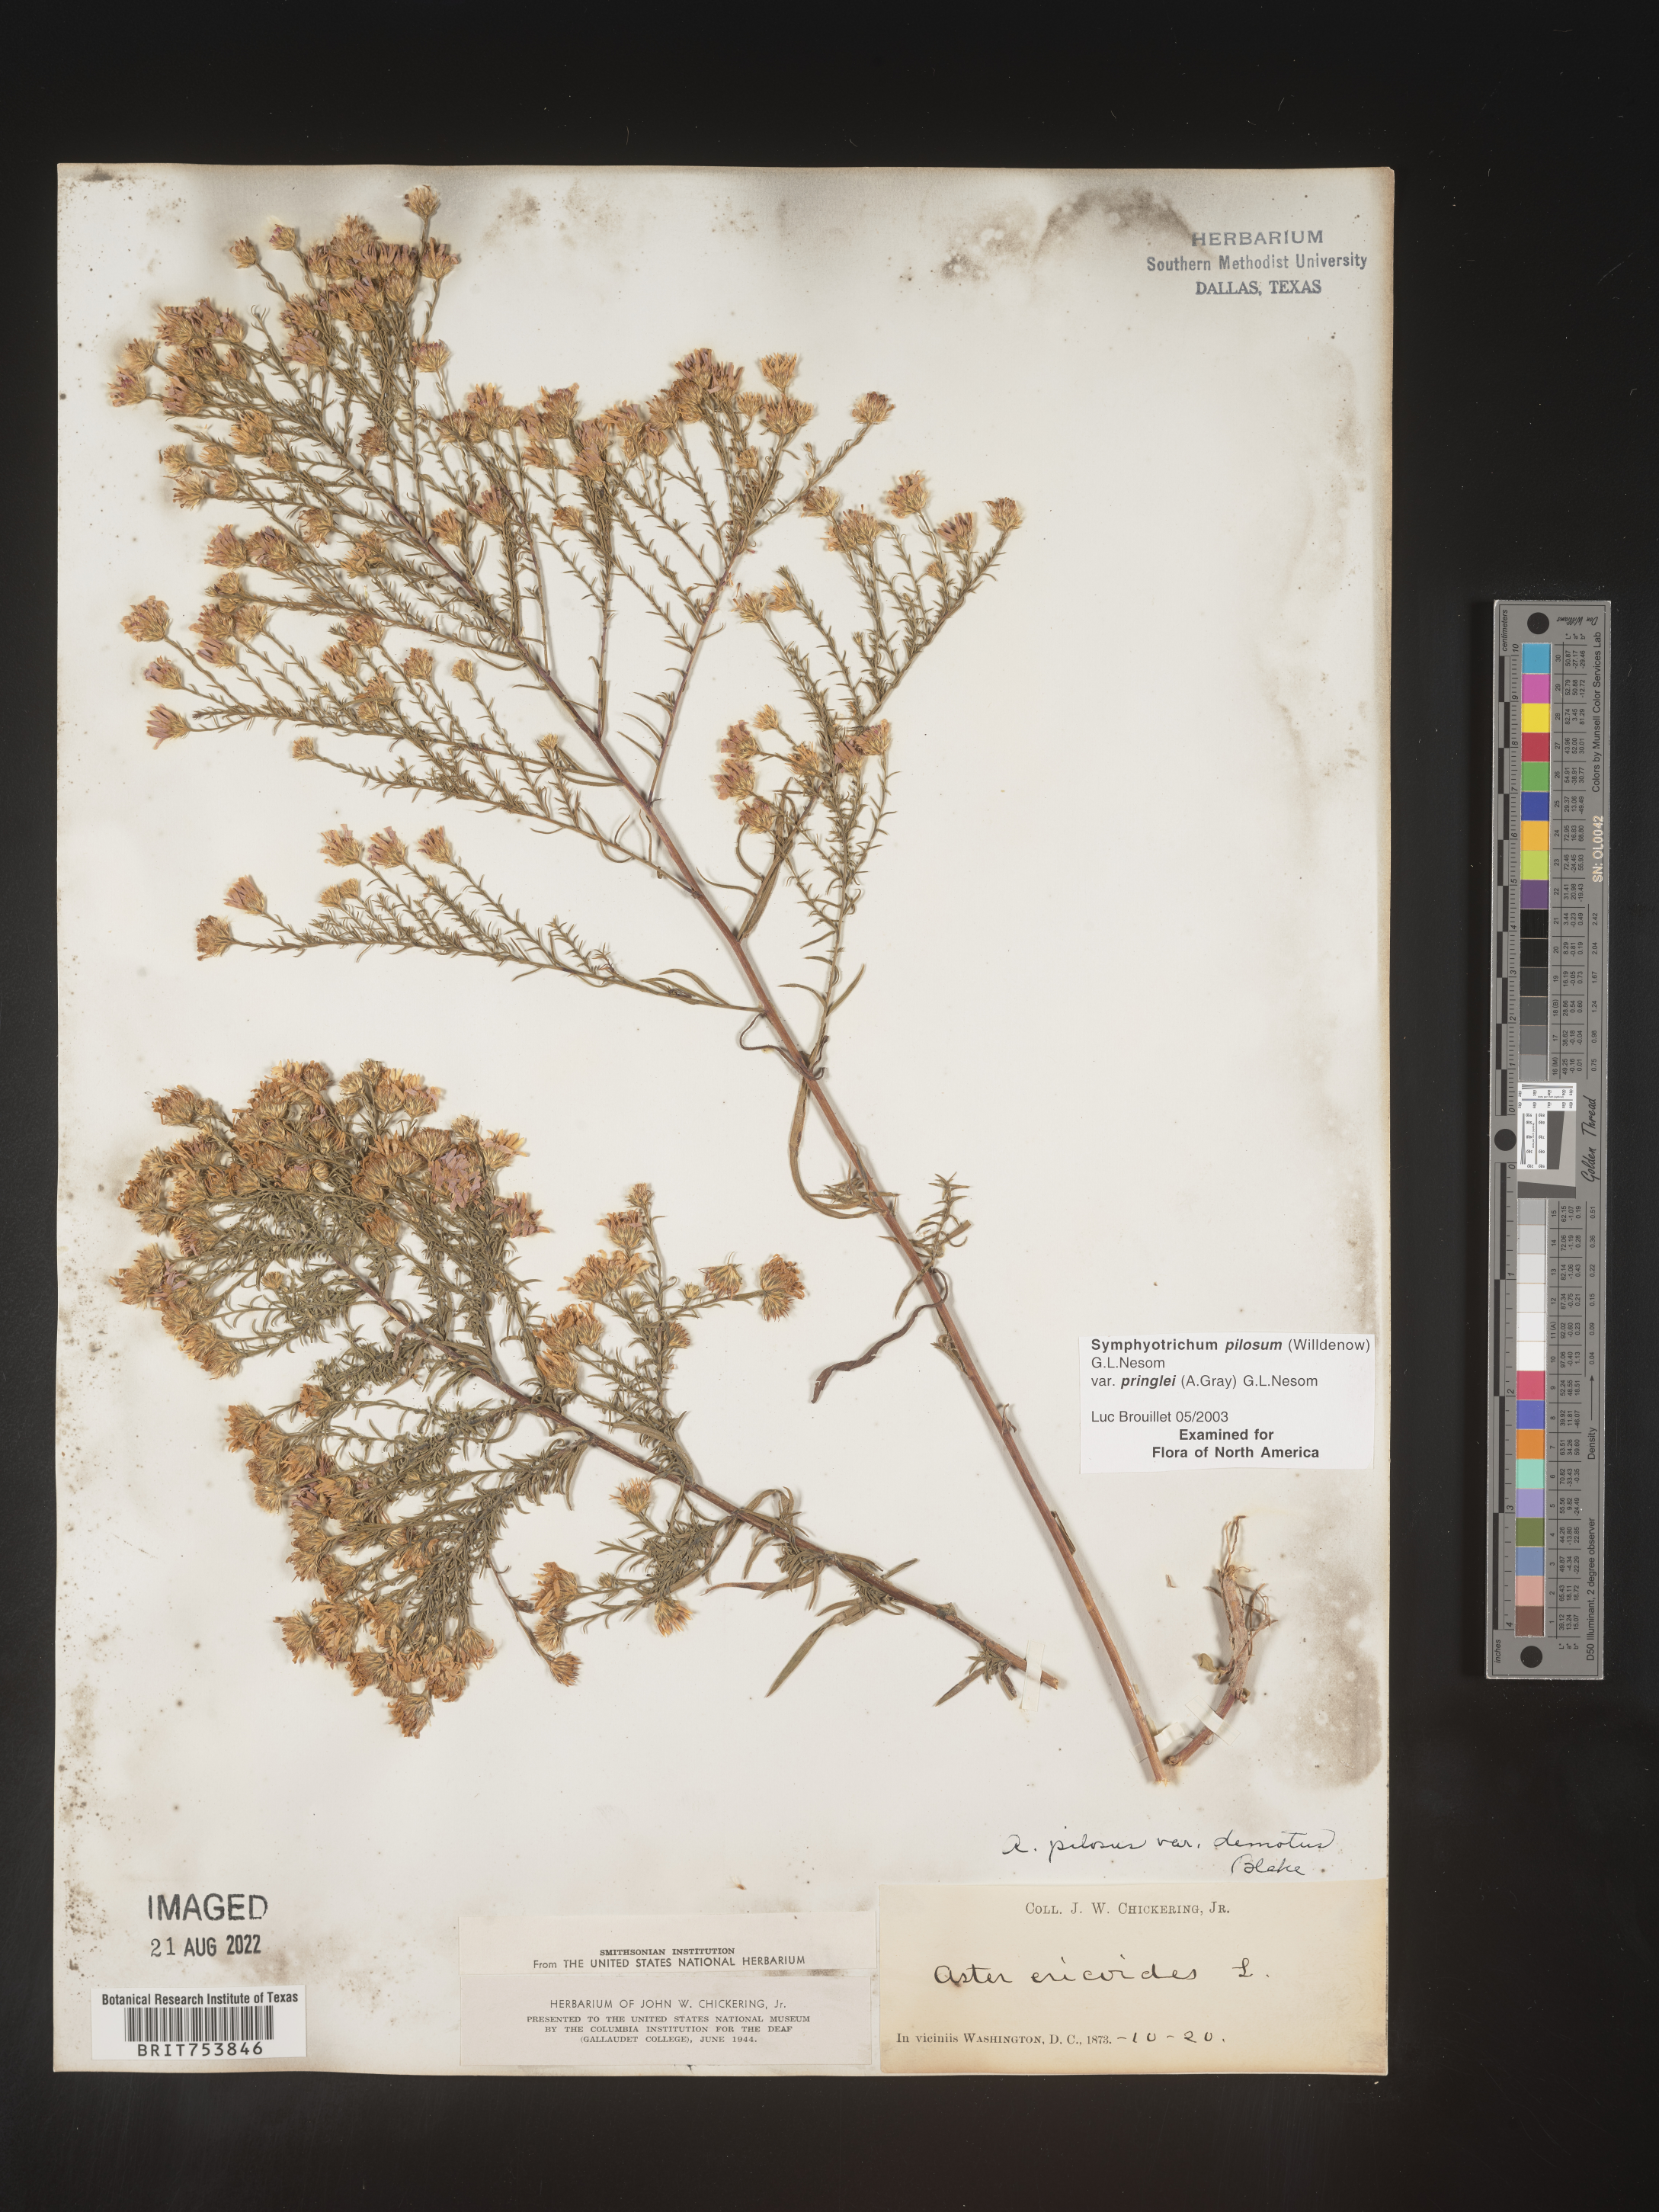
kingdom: Plantae
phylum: Tracheophyta
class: Magnoliopsida
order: Asterales
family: Asteraceae
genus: Symphyotrichum
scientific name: Symphyotrichum pilosum
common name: Awl aster
